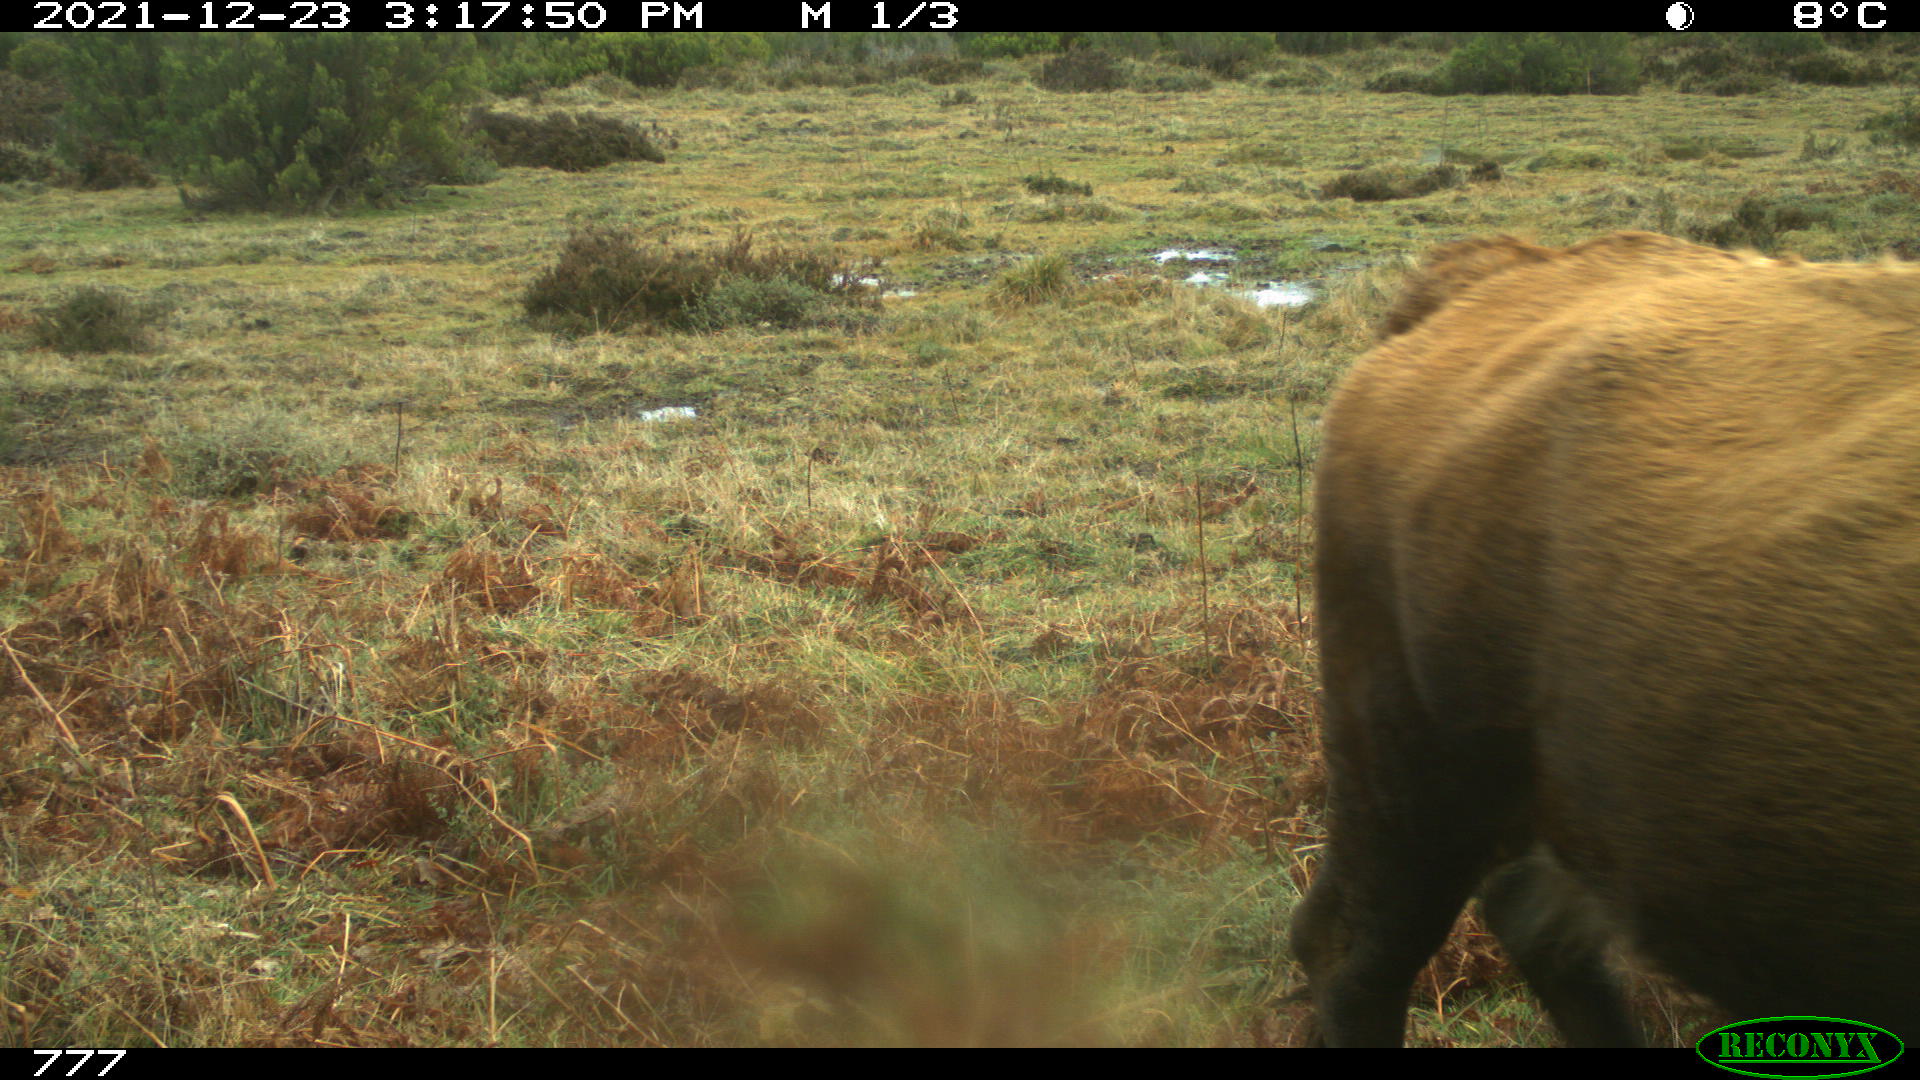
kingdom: Animalia
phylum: Chordata
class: Mammalia
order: Artiodactyla
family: Bovidae
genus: Bos
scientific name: Bos taurus
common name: Domesticated cattle
